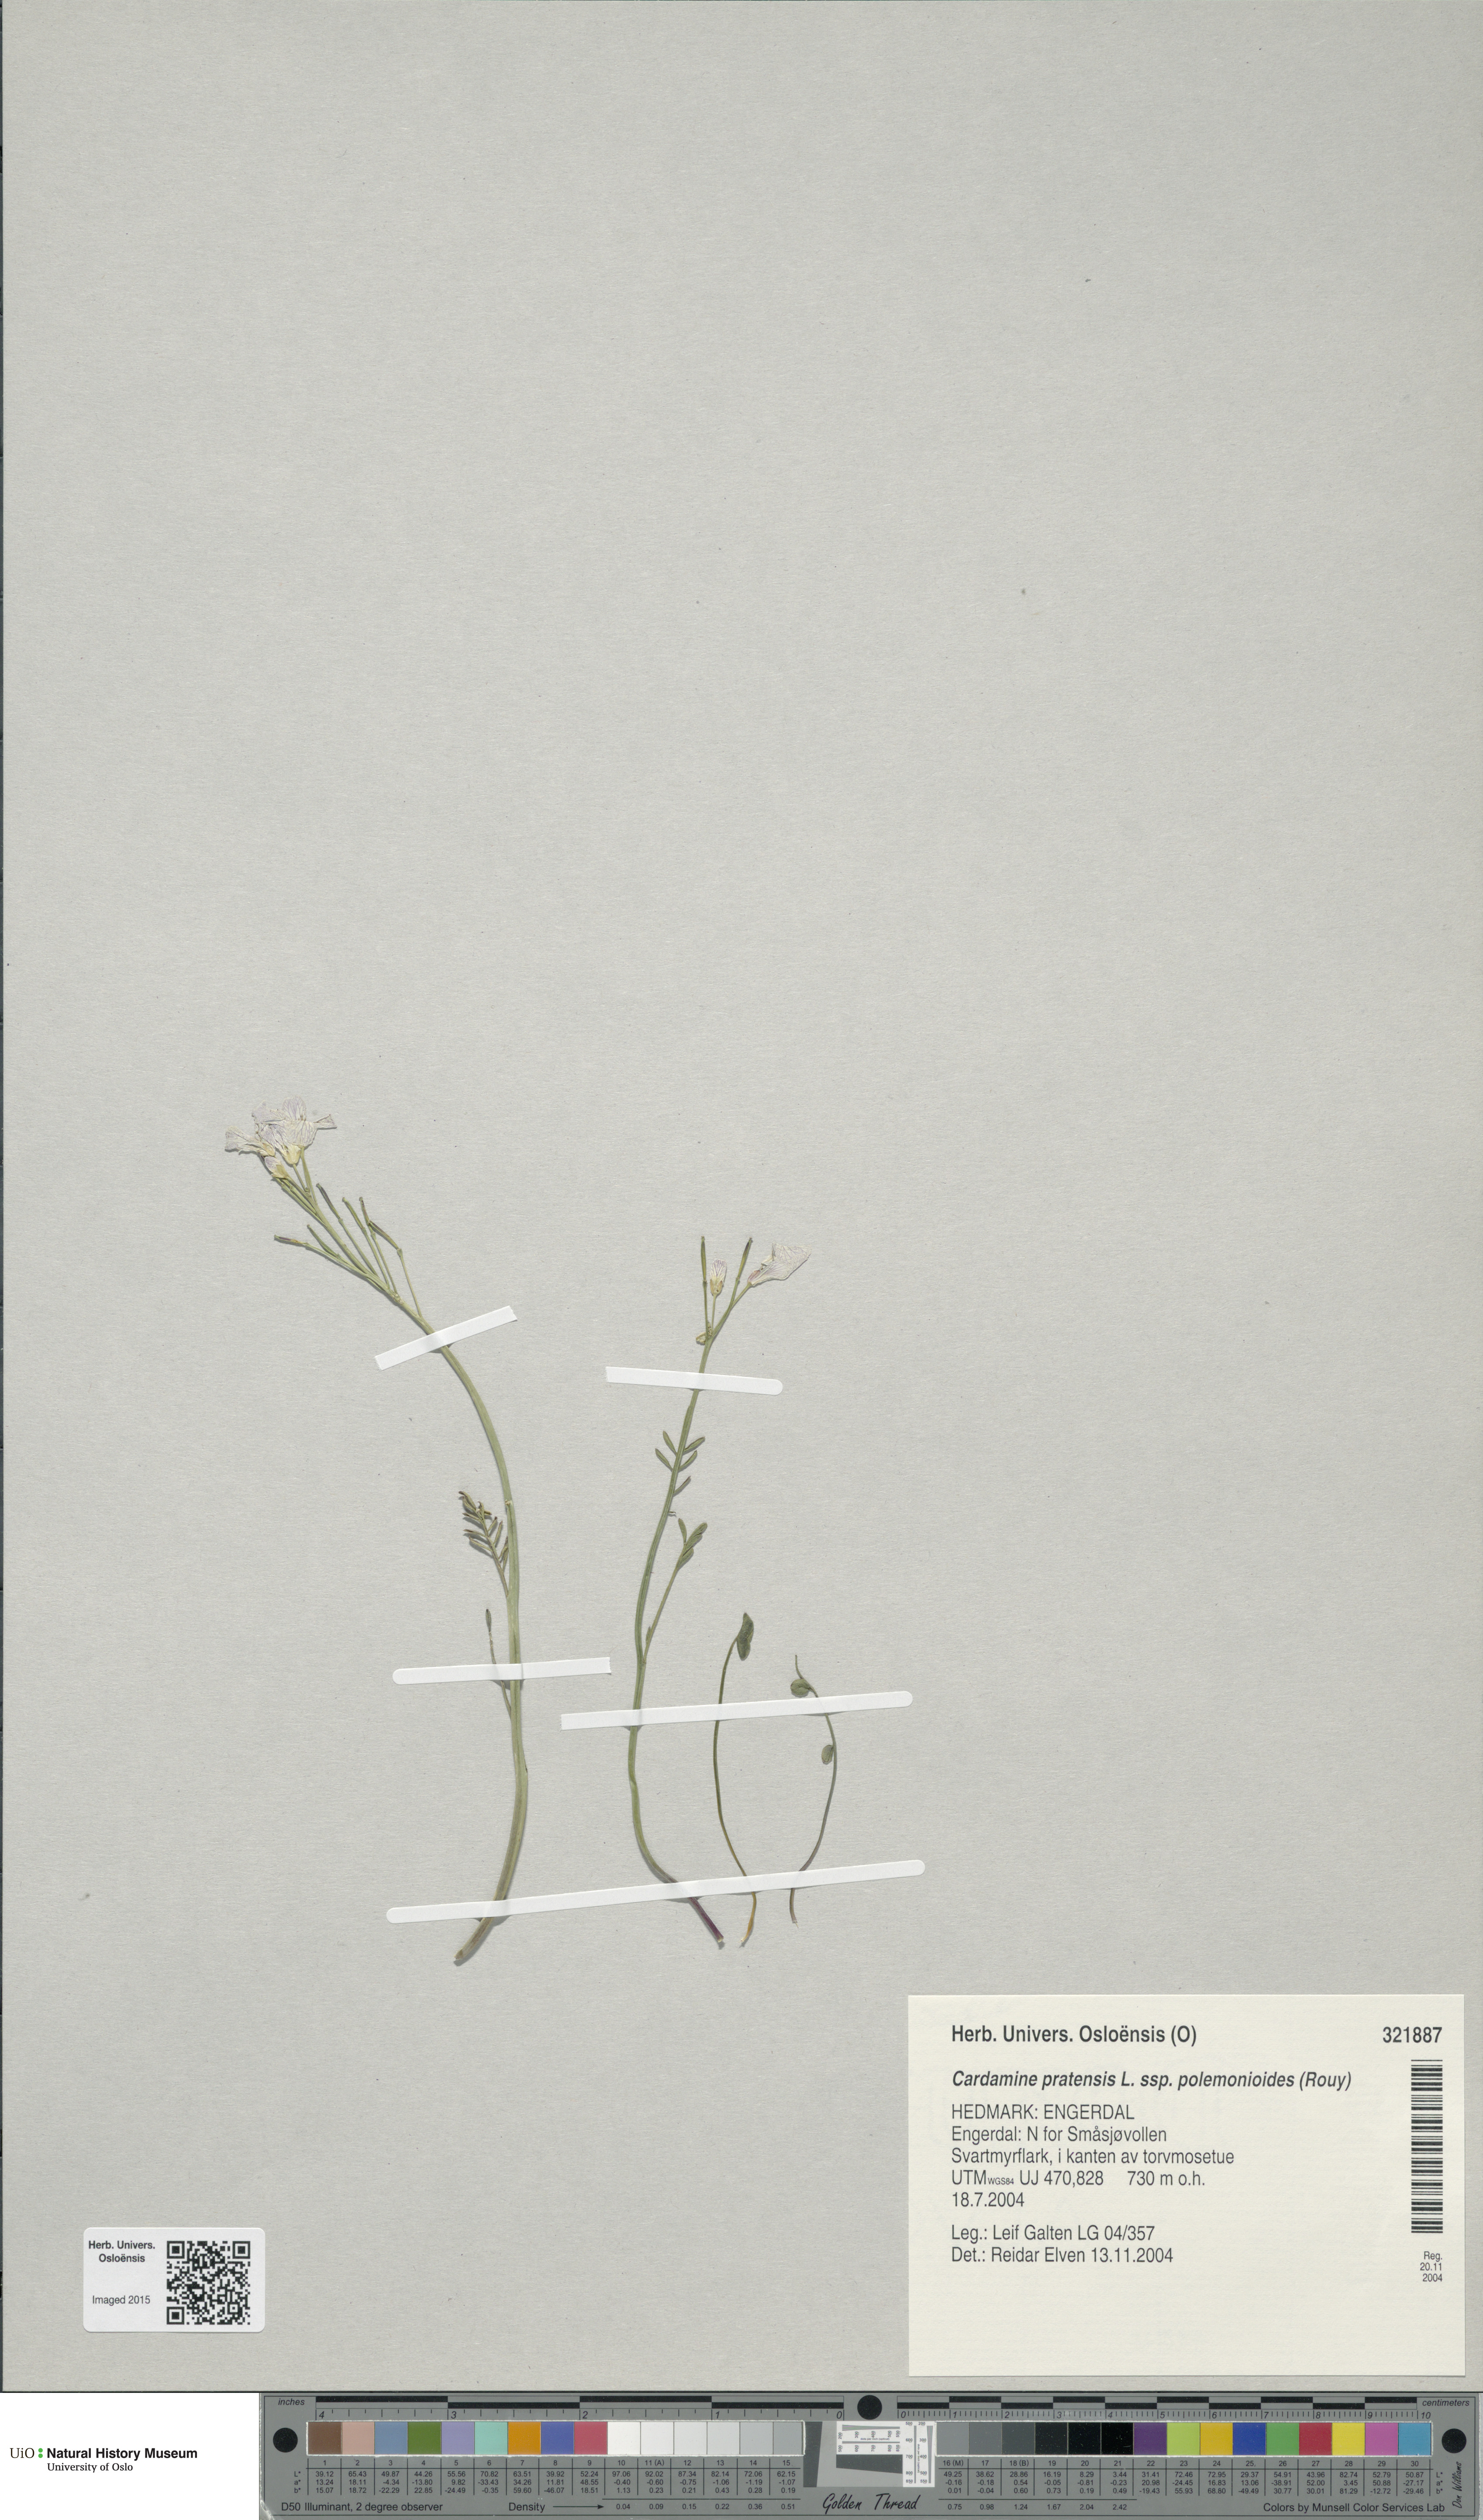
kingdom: Plantae
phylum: Tracheophyta
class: Magnoliopsida
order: Brassicales
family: Brassicaceae
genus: Cardamine
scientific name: Cardamine nymanii
